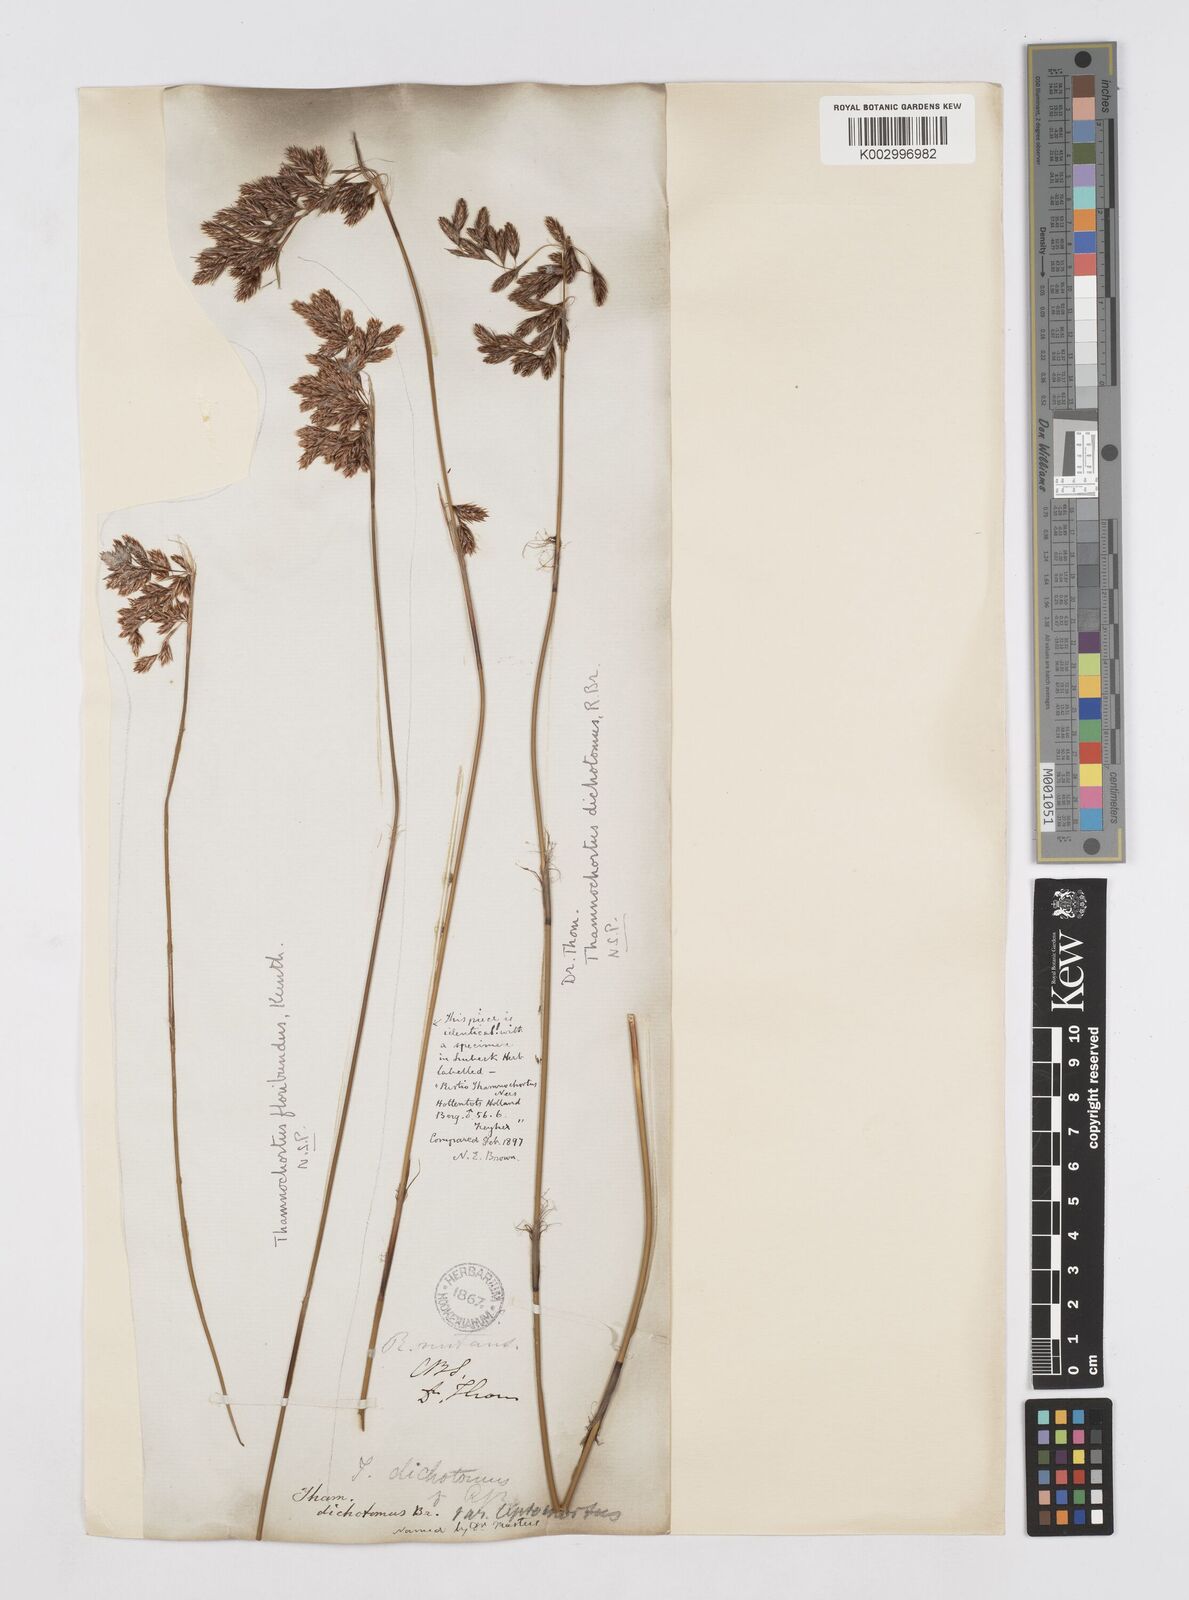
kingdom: Plantae
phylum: Tracheophyta
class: Liliopsida
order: Poales
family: Restionaceae
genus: Thamnochortus
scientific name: Thamnochortus erectus
